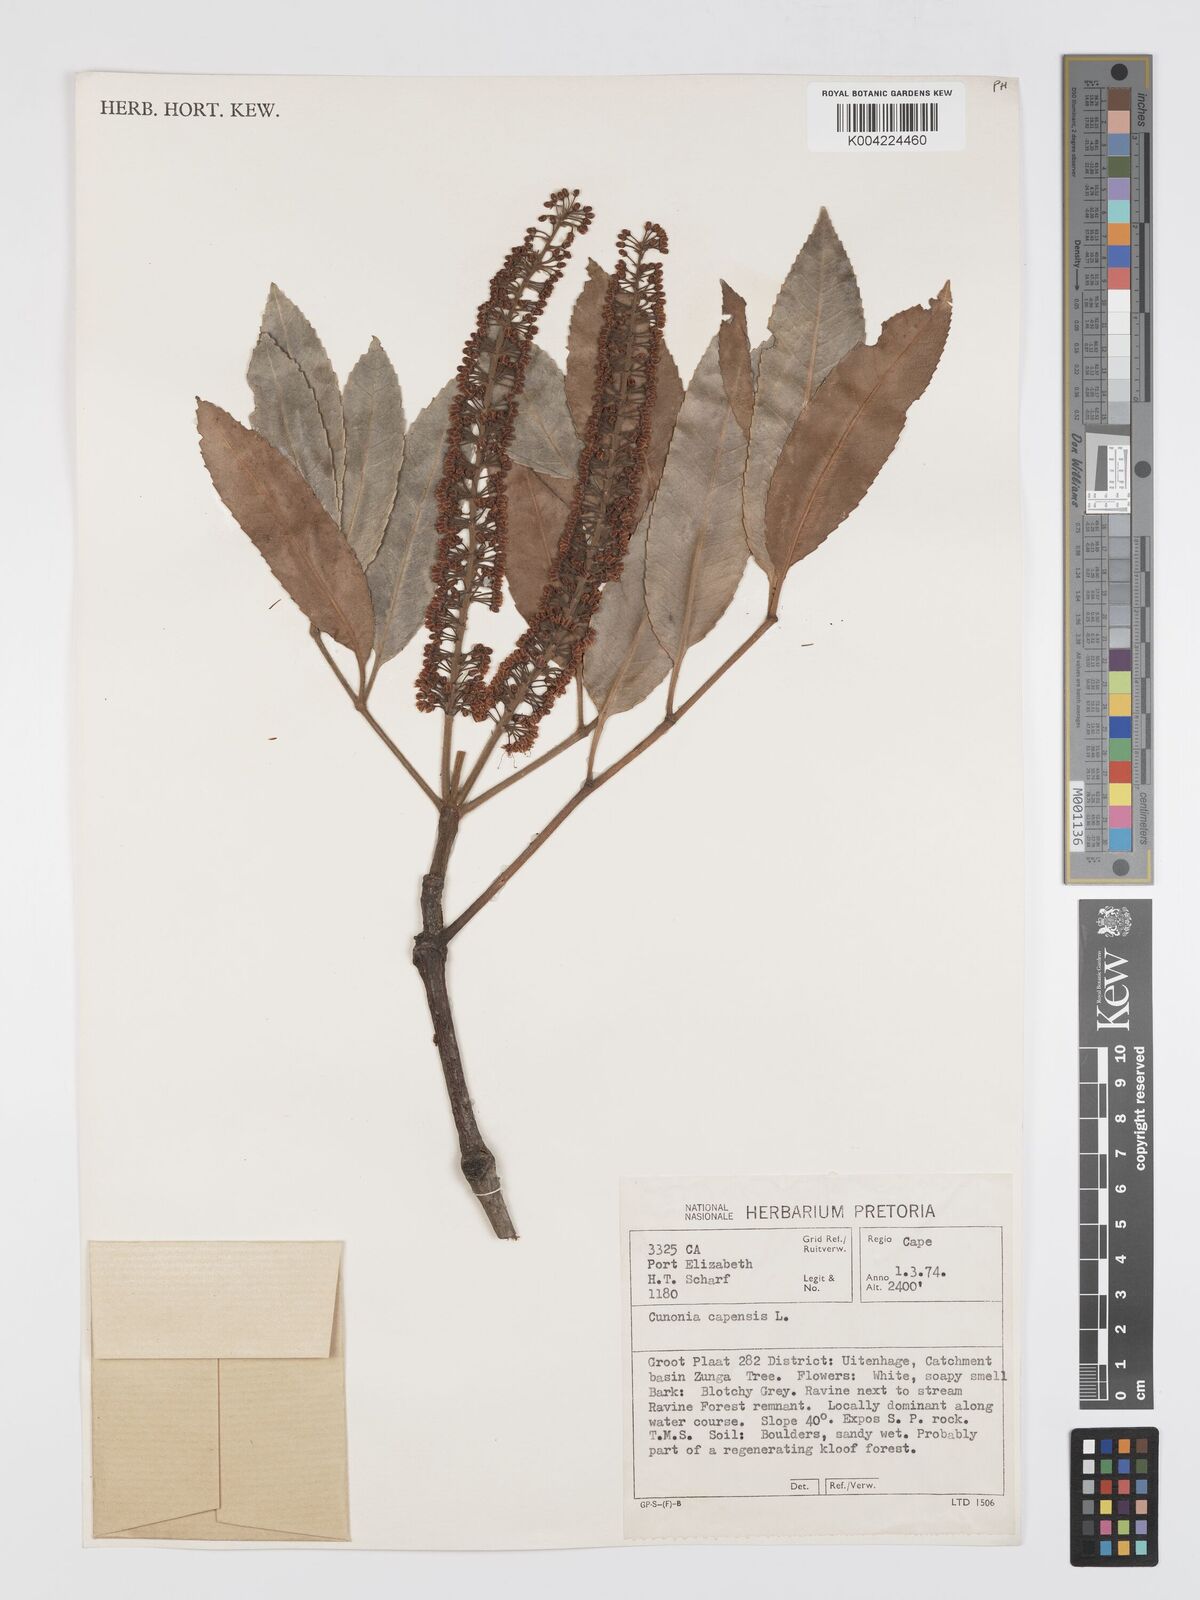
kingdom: Plantae
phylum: Tracheophyta
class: Magnoliopsida
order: Oxalidales
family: Cunoniaceae
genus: Cunonia
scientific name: Cunonia capensis
